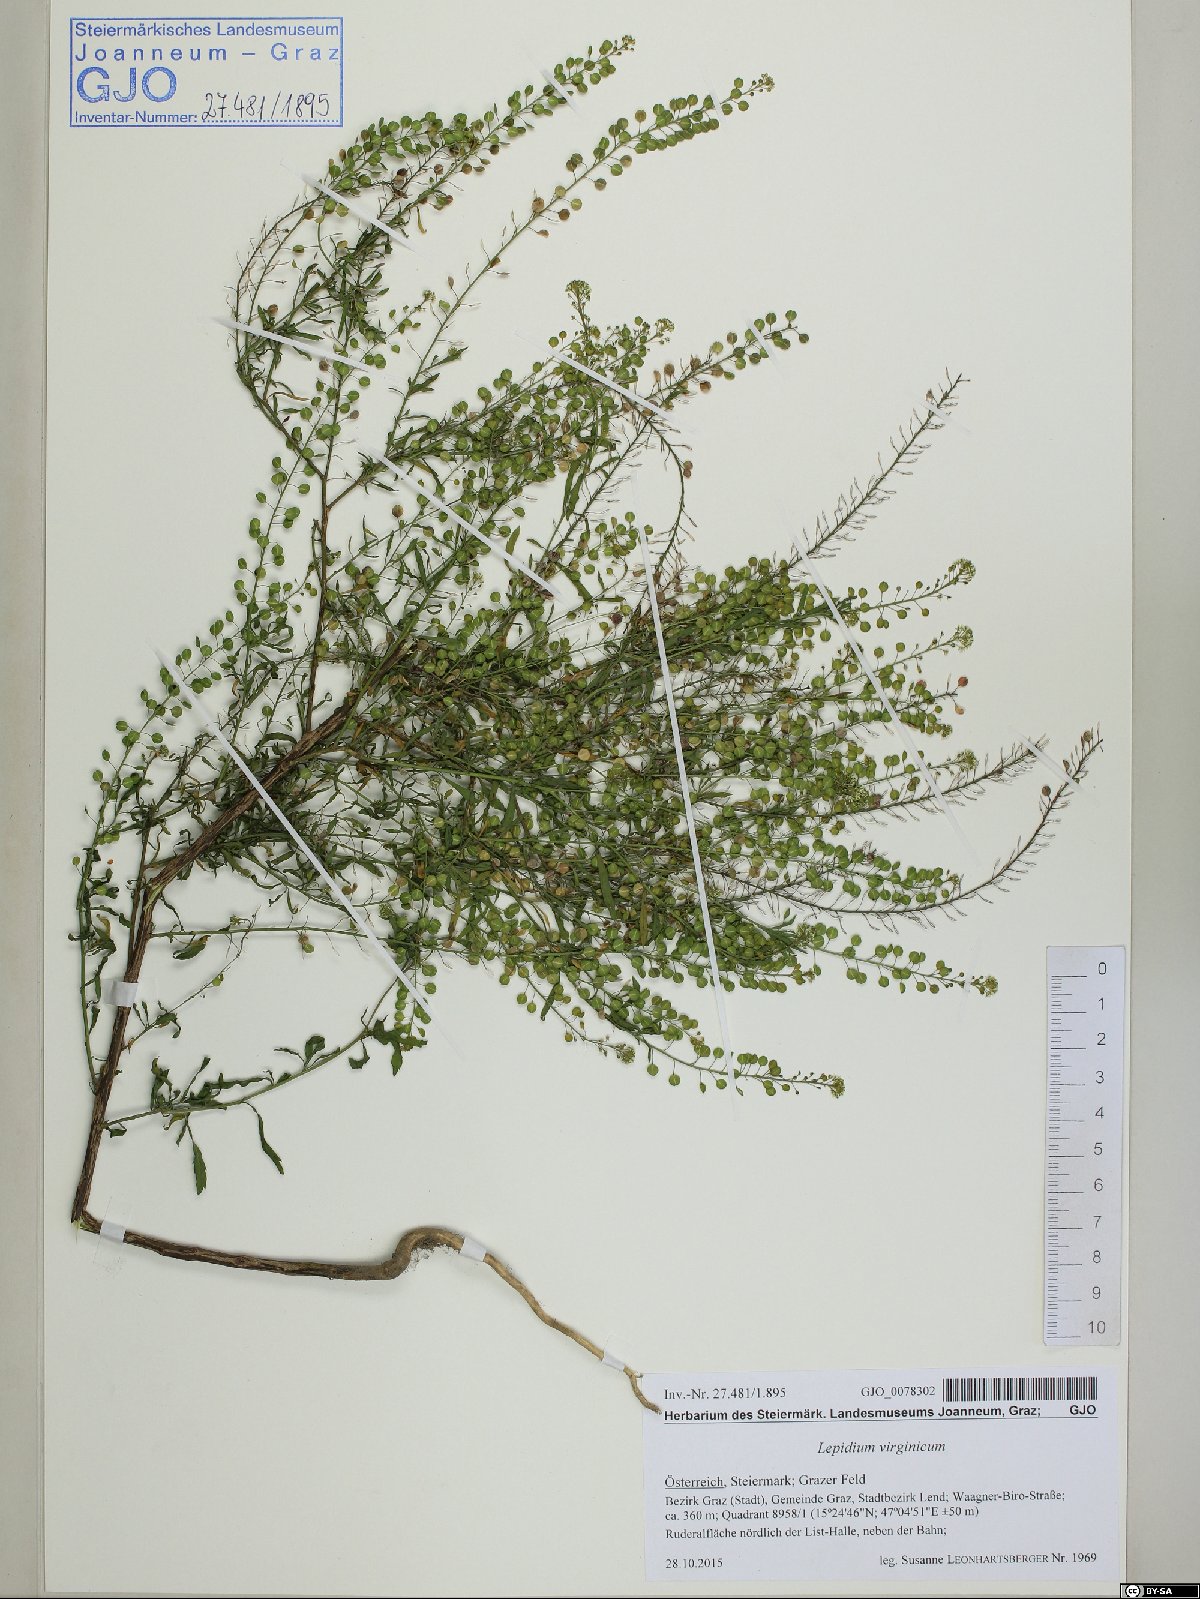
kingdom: Plantae
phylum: Tracheophyta
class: Magnoliopsida
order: Brassicales
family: Brassicaceae
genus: Lepidium
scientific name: Lepidium virginicum
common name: Least pepperwort
